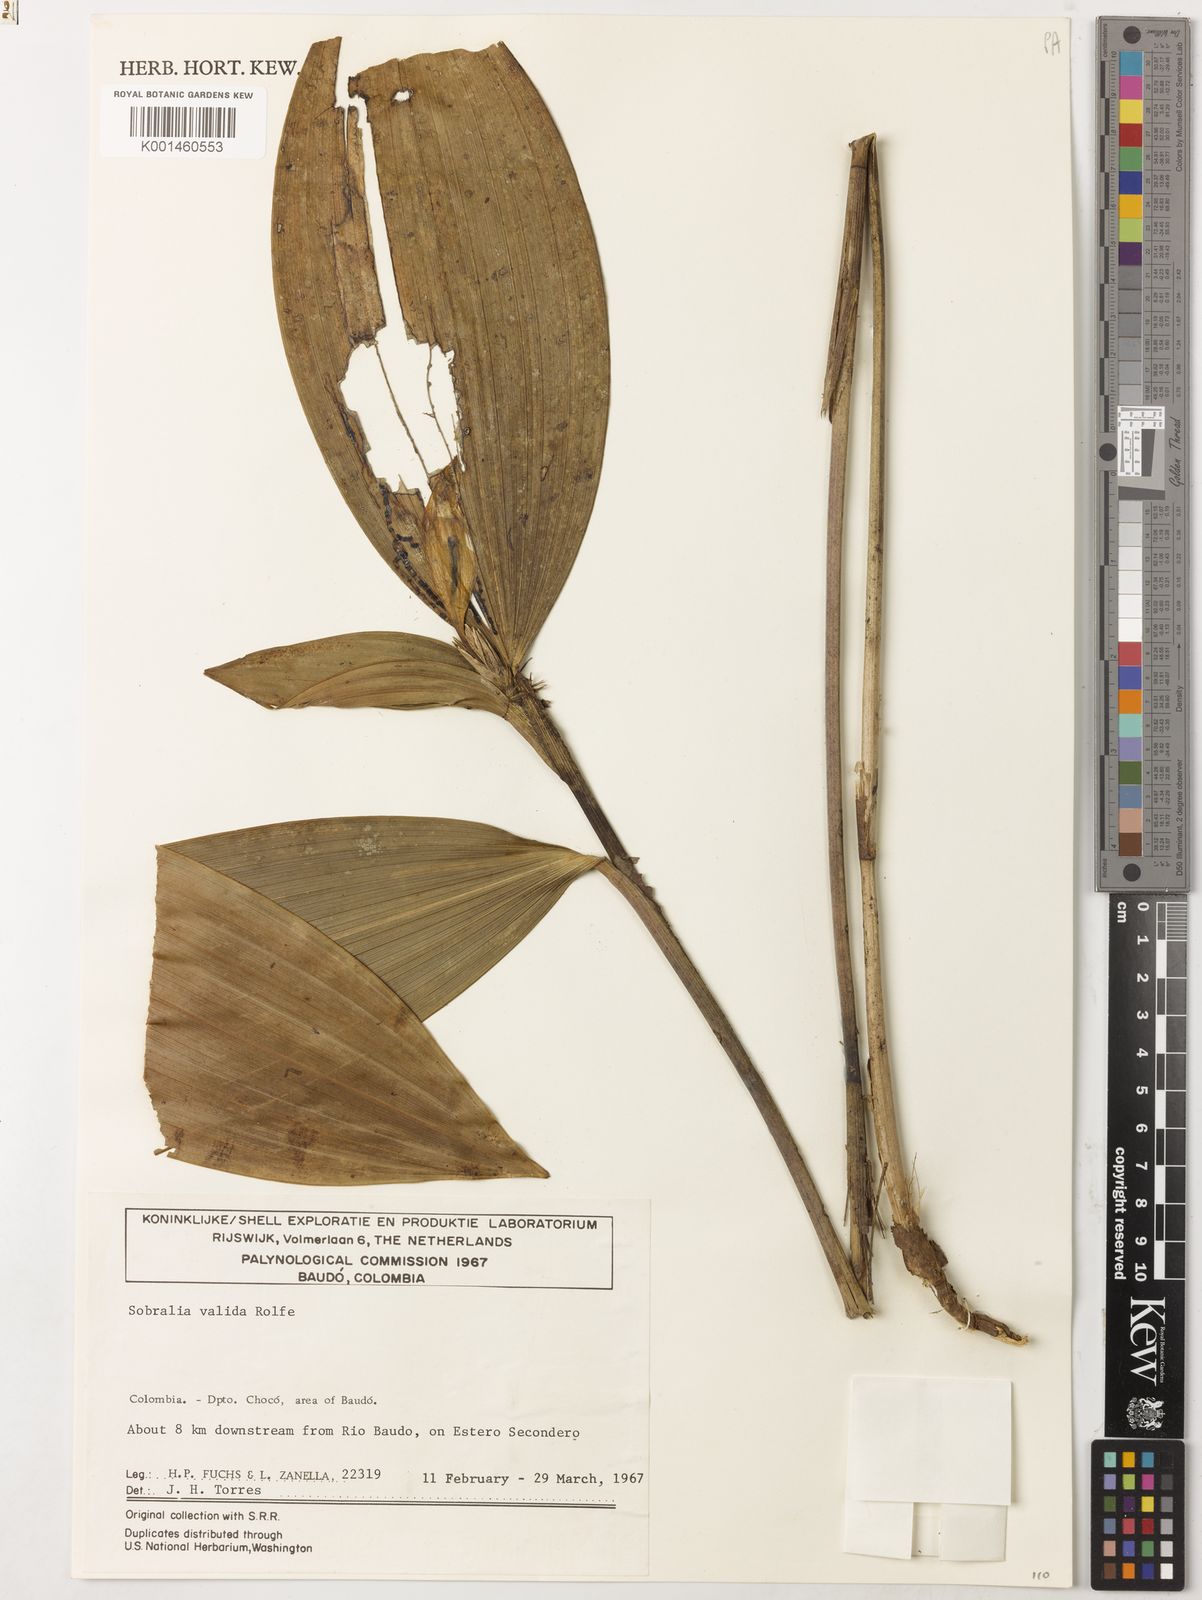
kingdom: Plantae
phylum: Tracheophyta
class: Liliopsida
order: Asparagales
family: Orchidaceae
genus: Sobralia
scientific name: Sobralia valida
